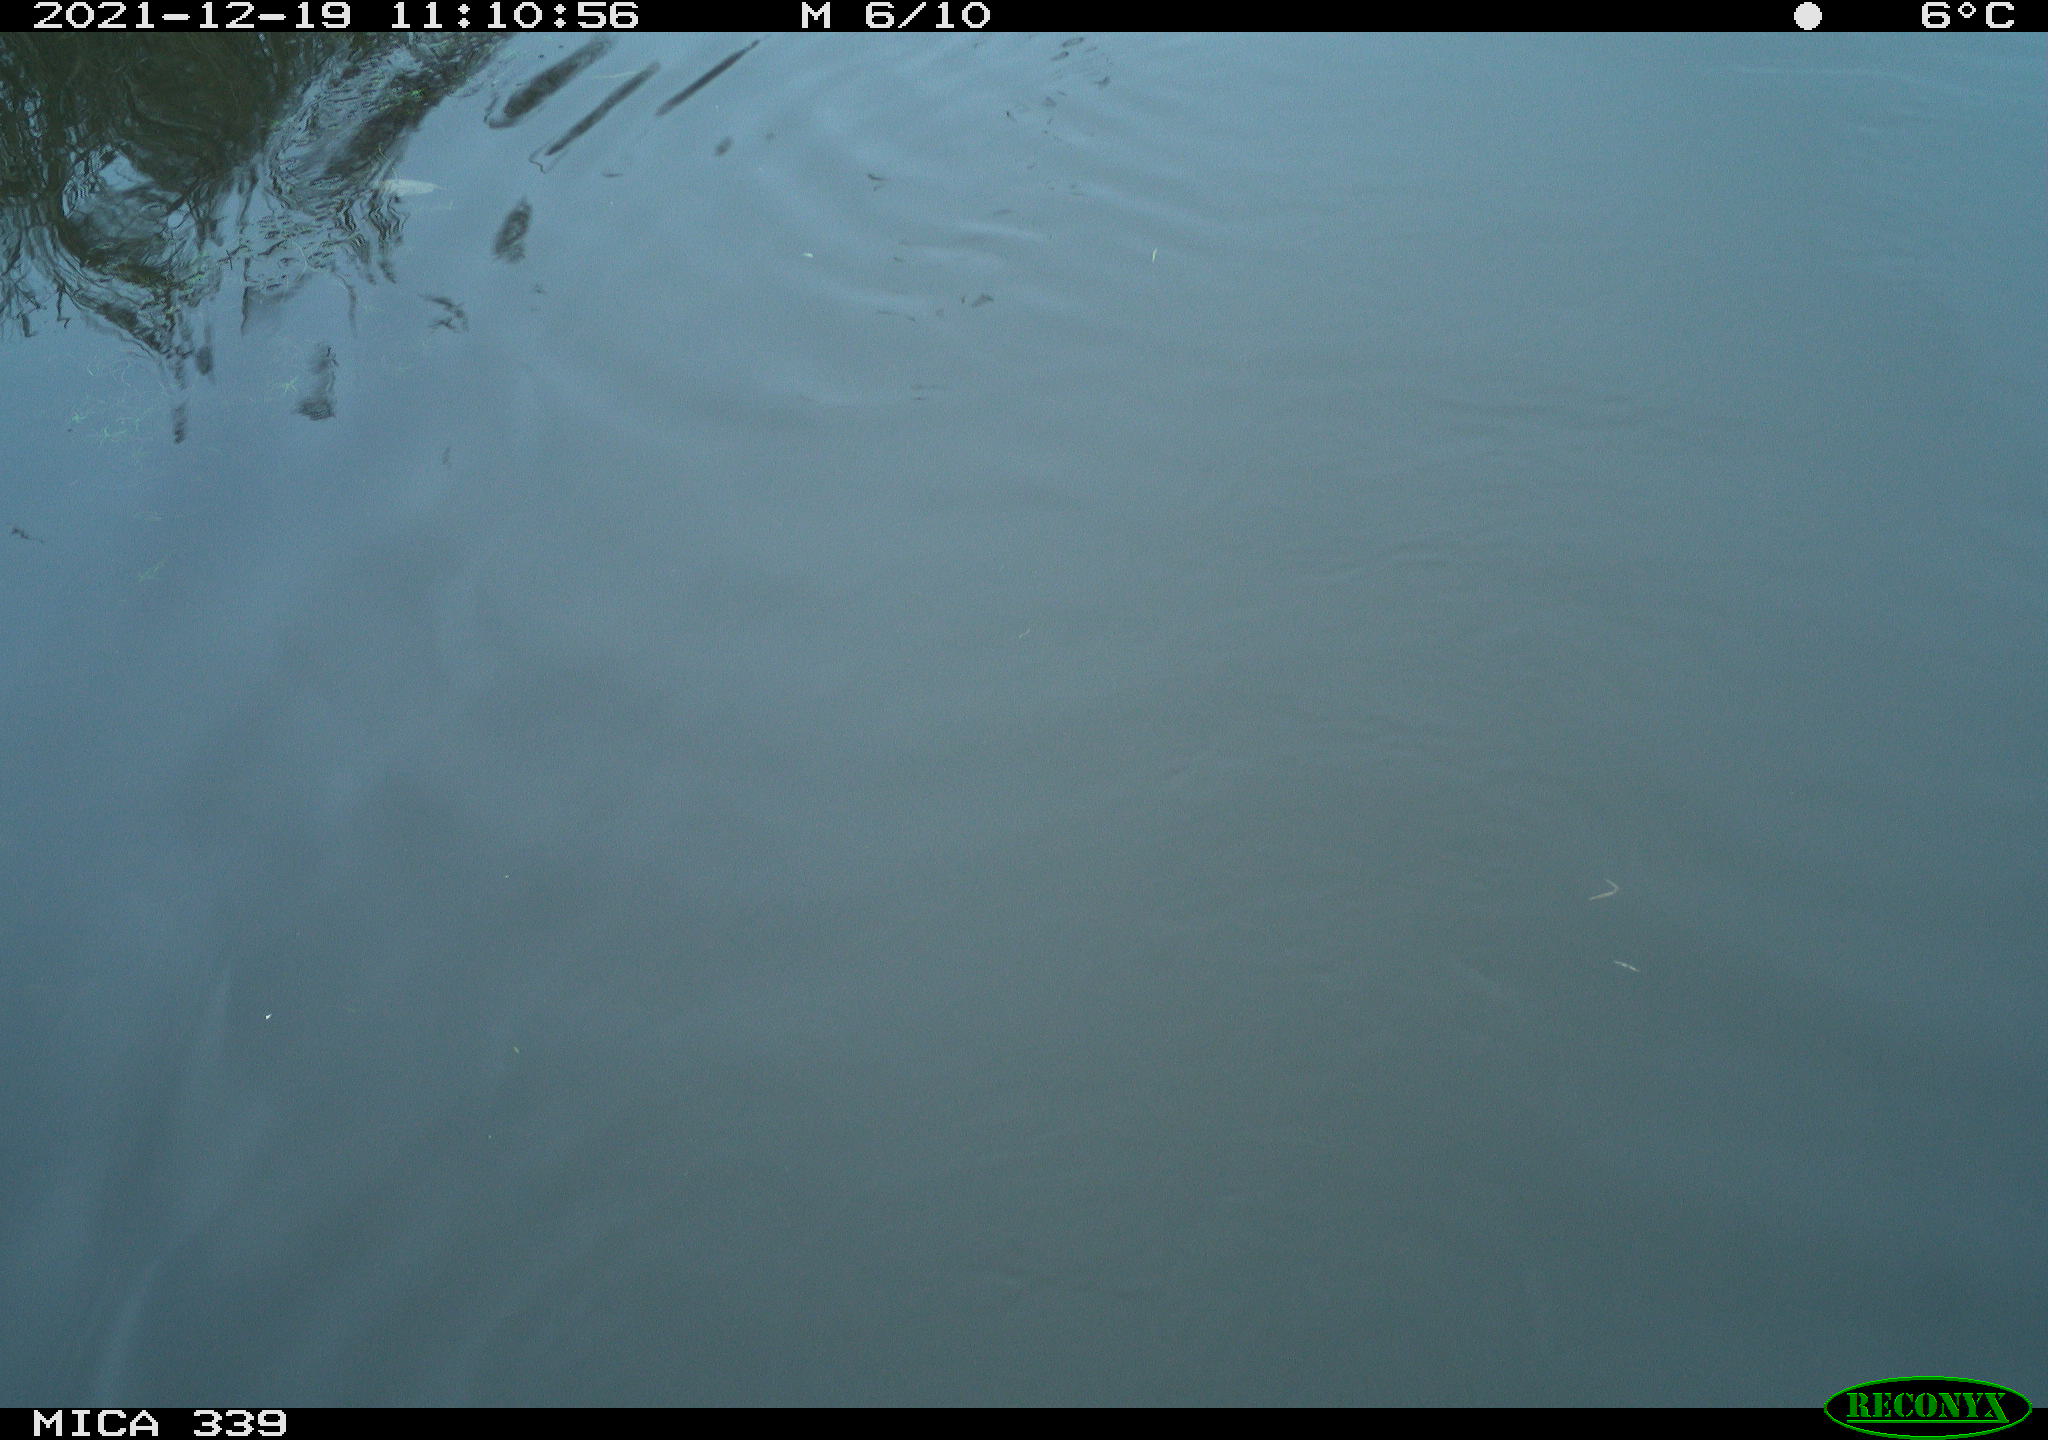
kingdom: Animalia
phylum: Chordata
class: Aves
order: Suliformes
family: Phalacrocoracidae
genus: Phalacrocorax
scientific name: Phalacrocorax carbo
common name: Great cormorant
